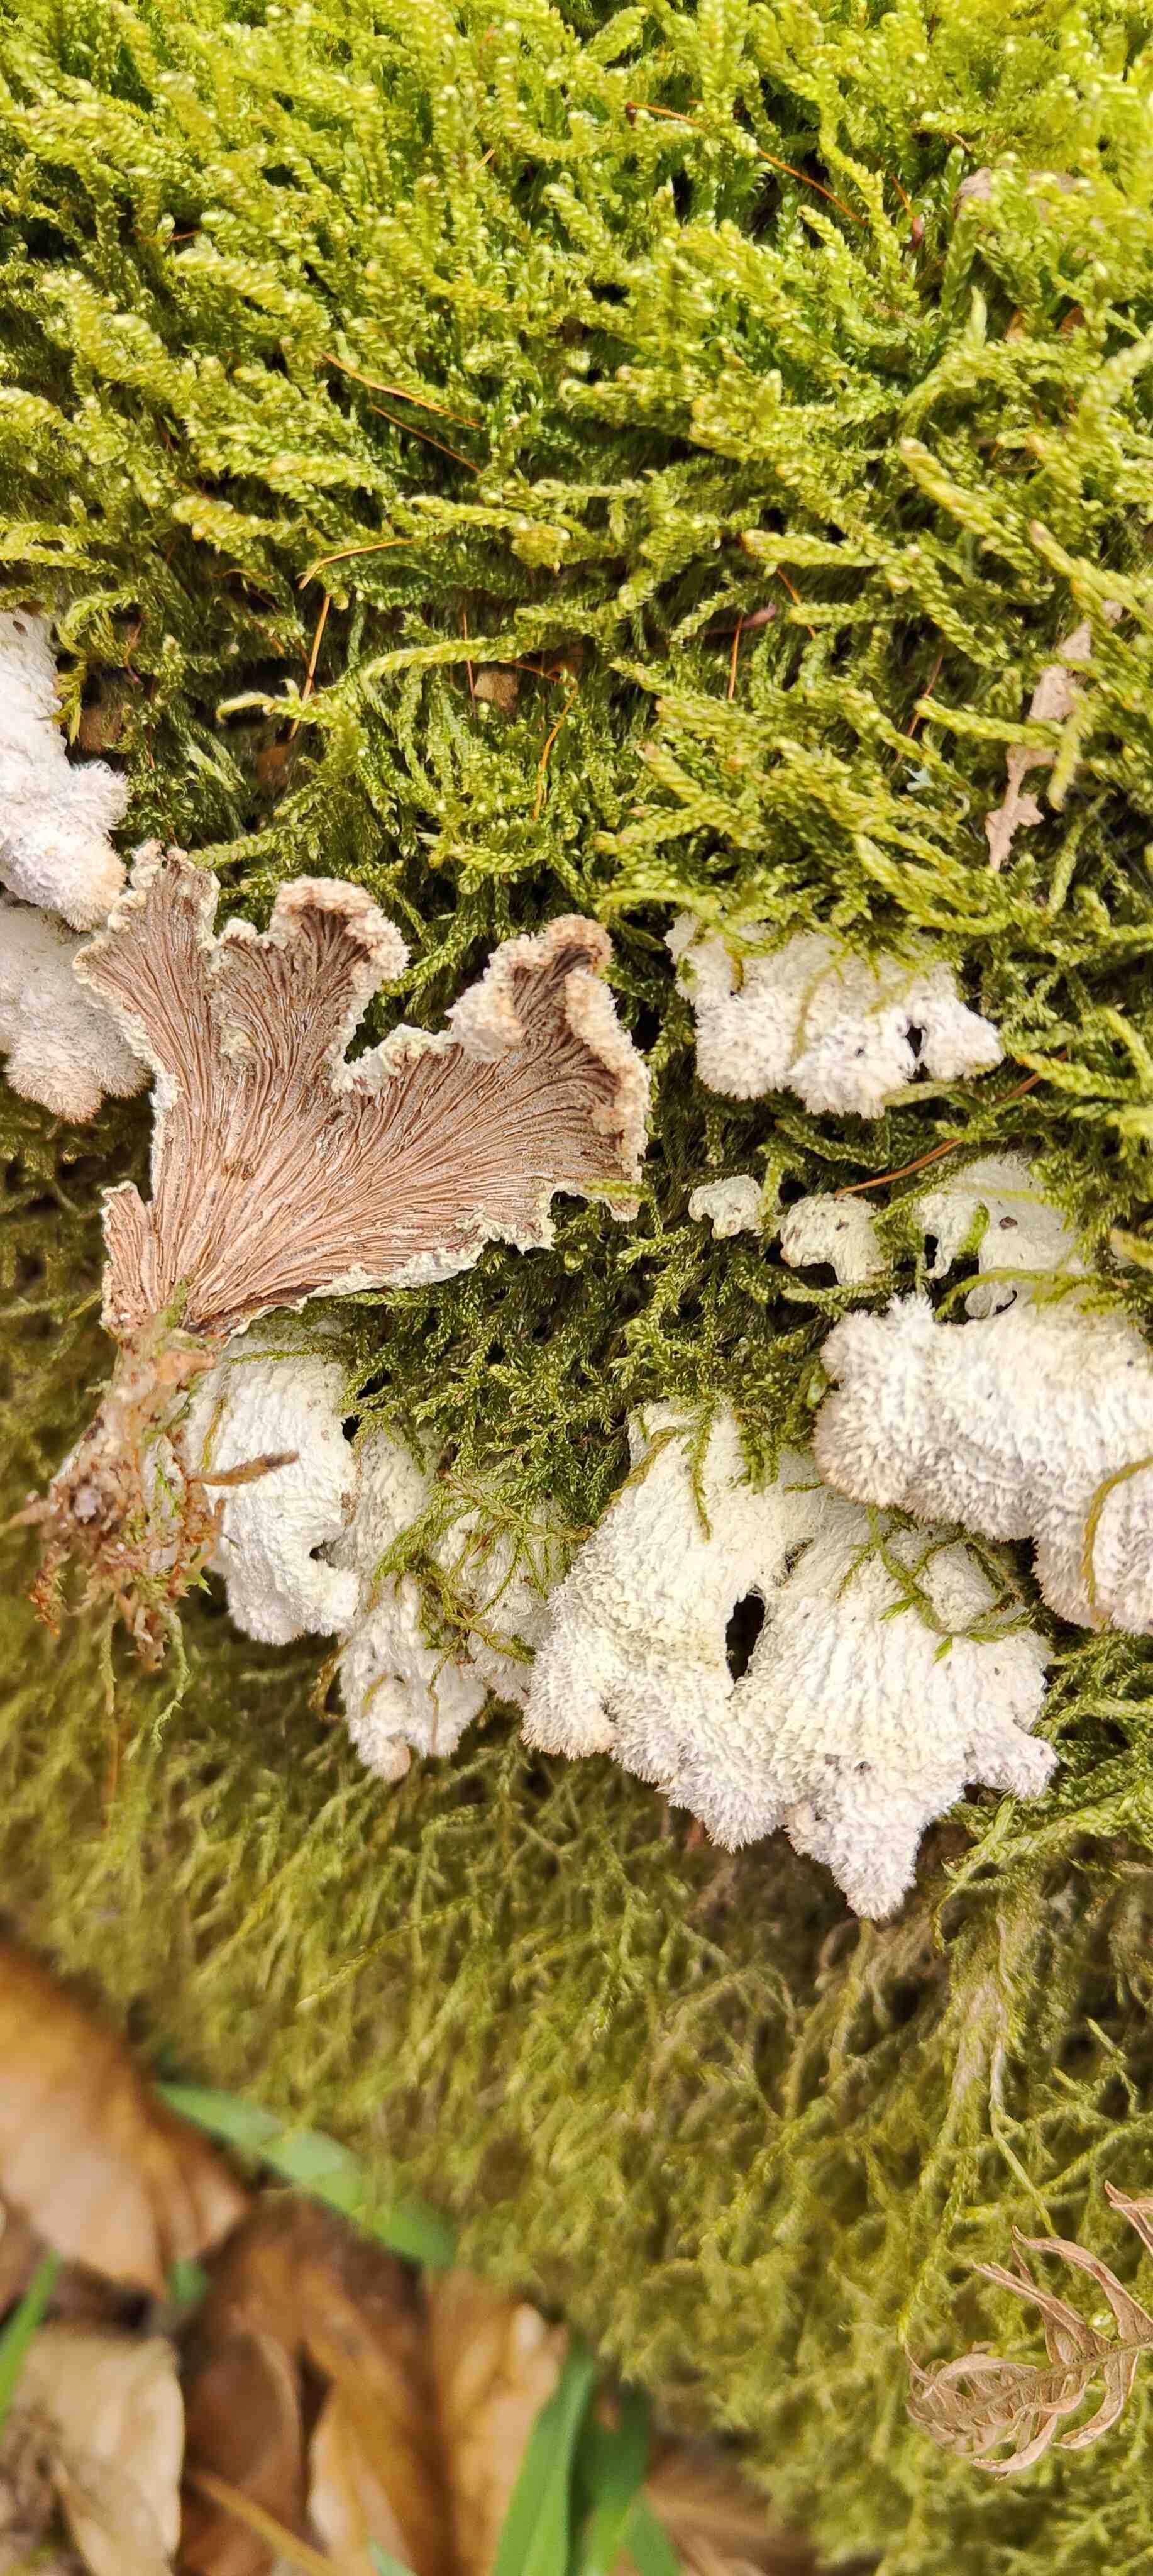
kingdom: Fungi
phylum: Basidiomycota
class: Agaricomycetes
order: Agaricales
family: Schizophyllaceae
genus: Schizophyllum
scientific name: Schizophyllum commune
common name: kløvblad
